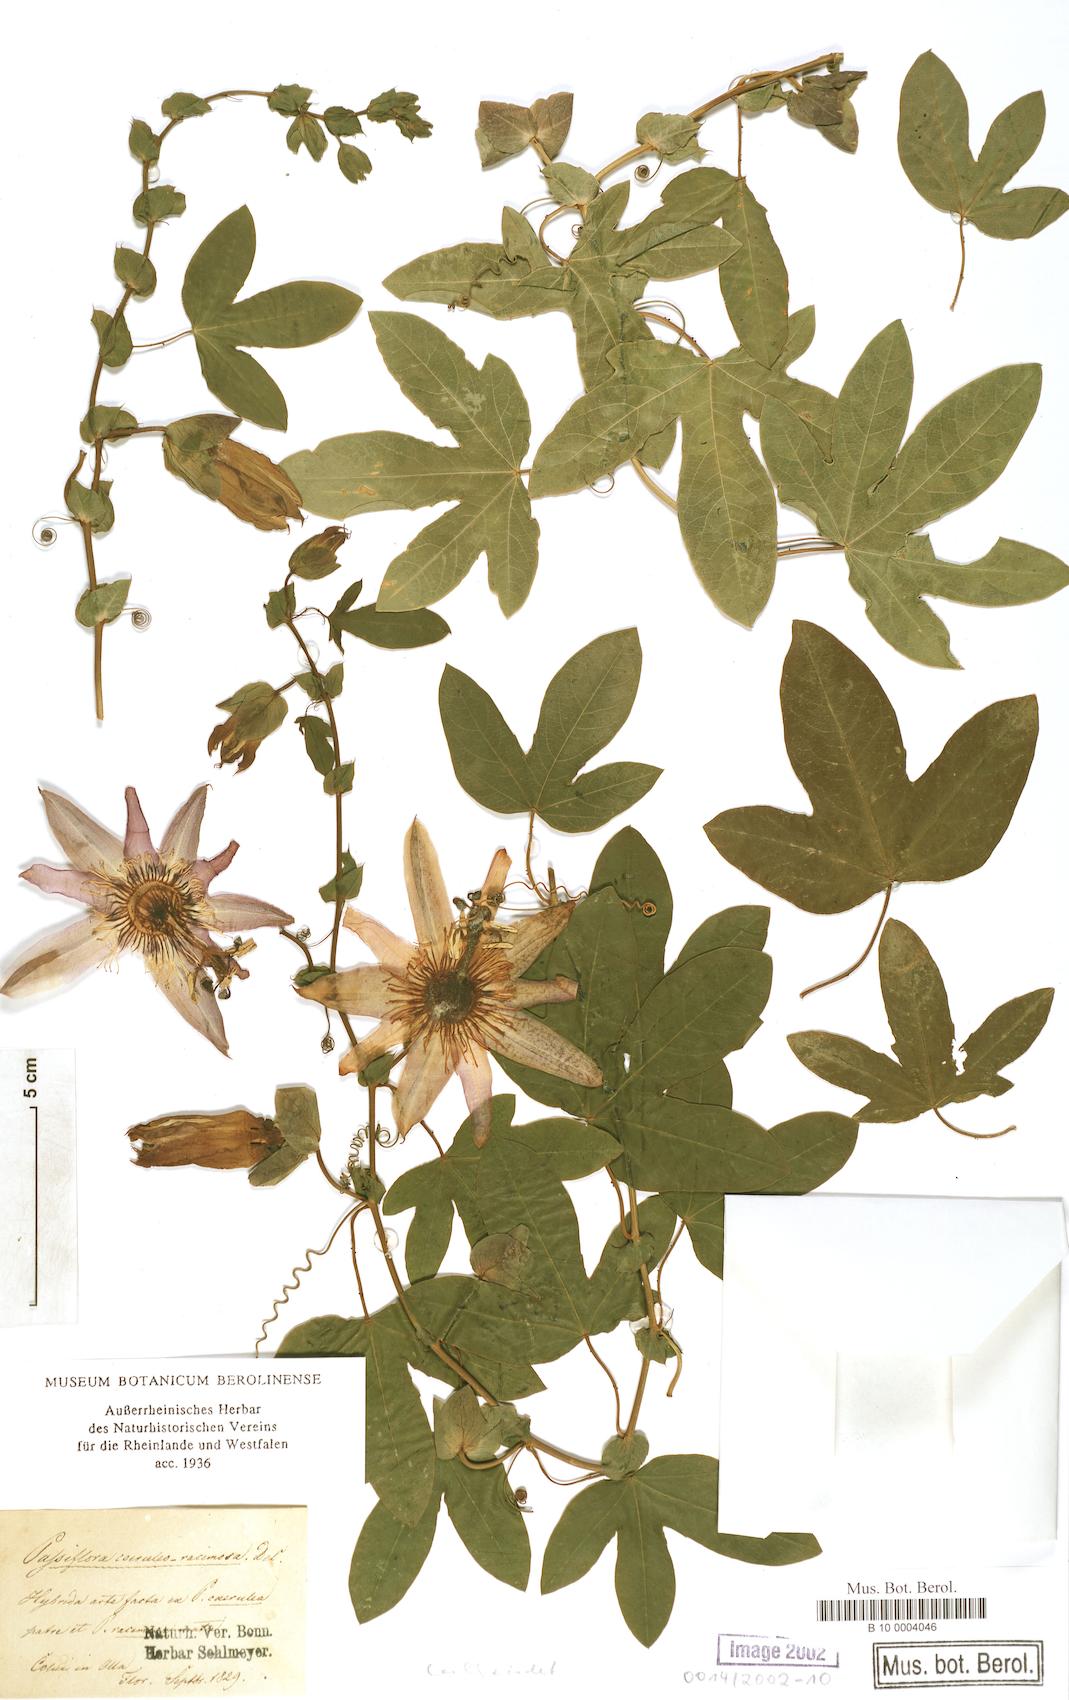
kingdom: Plantae
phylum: Tracheophyta
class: Magnoliopsida
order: Malpighiales
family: Passifloraceae
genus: Passiflora
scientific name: Passiflora
